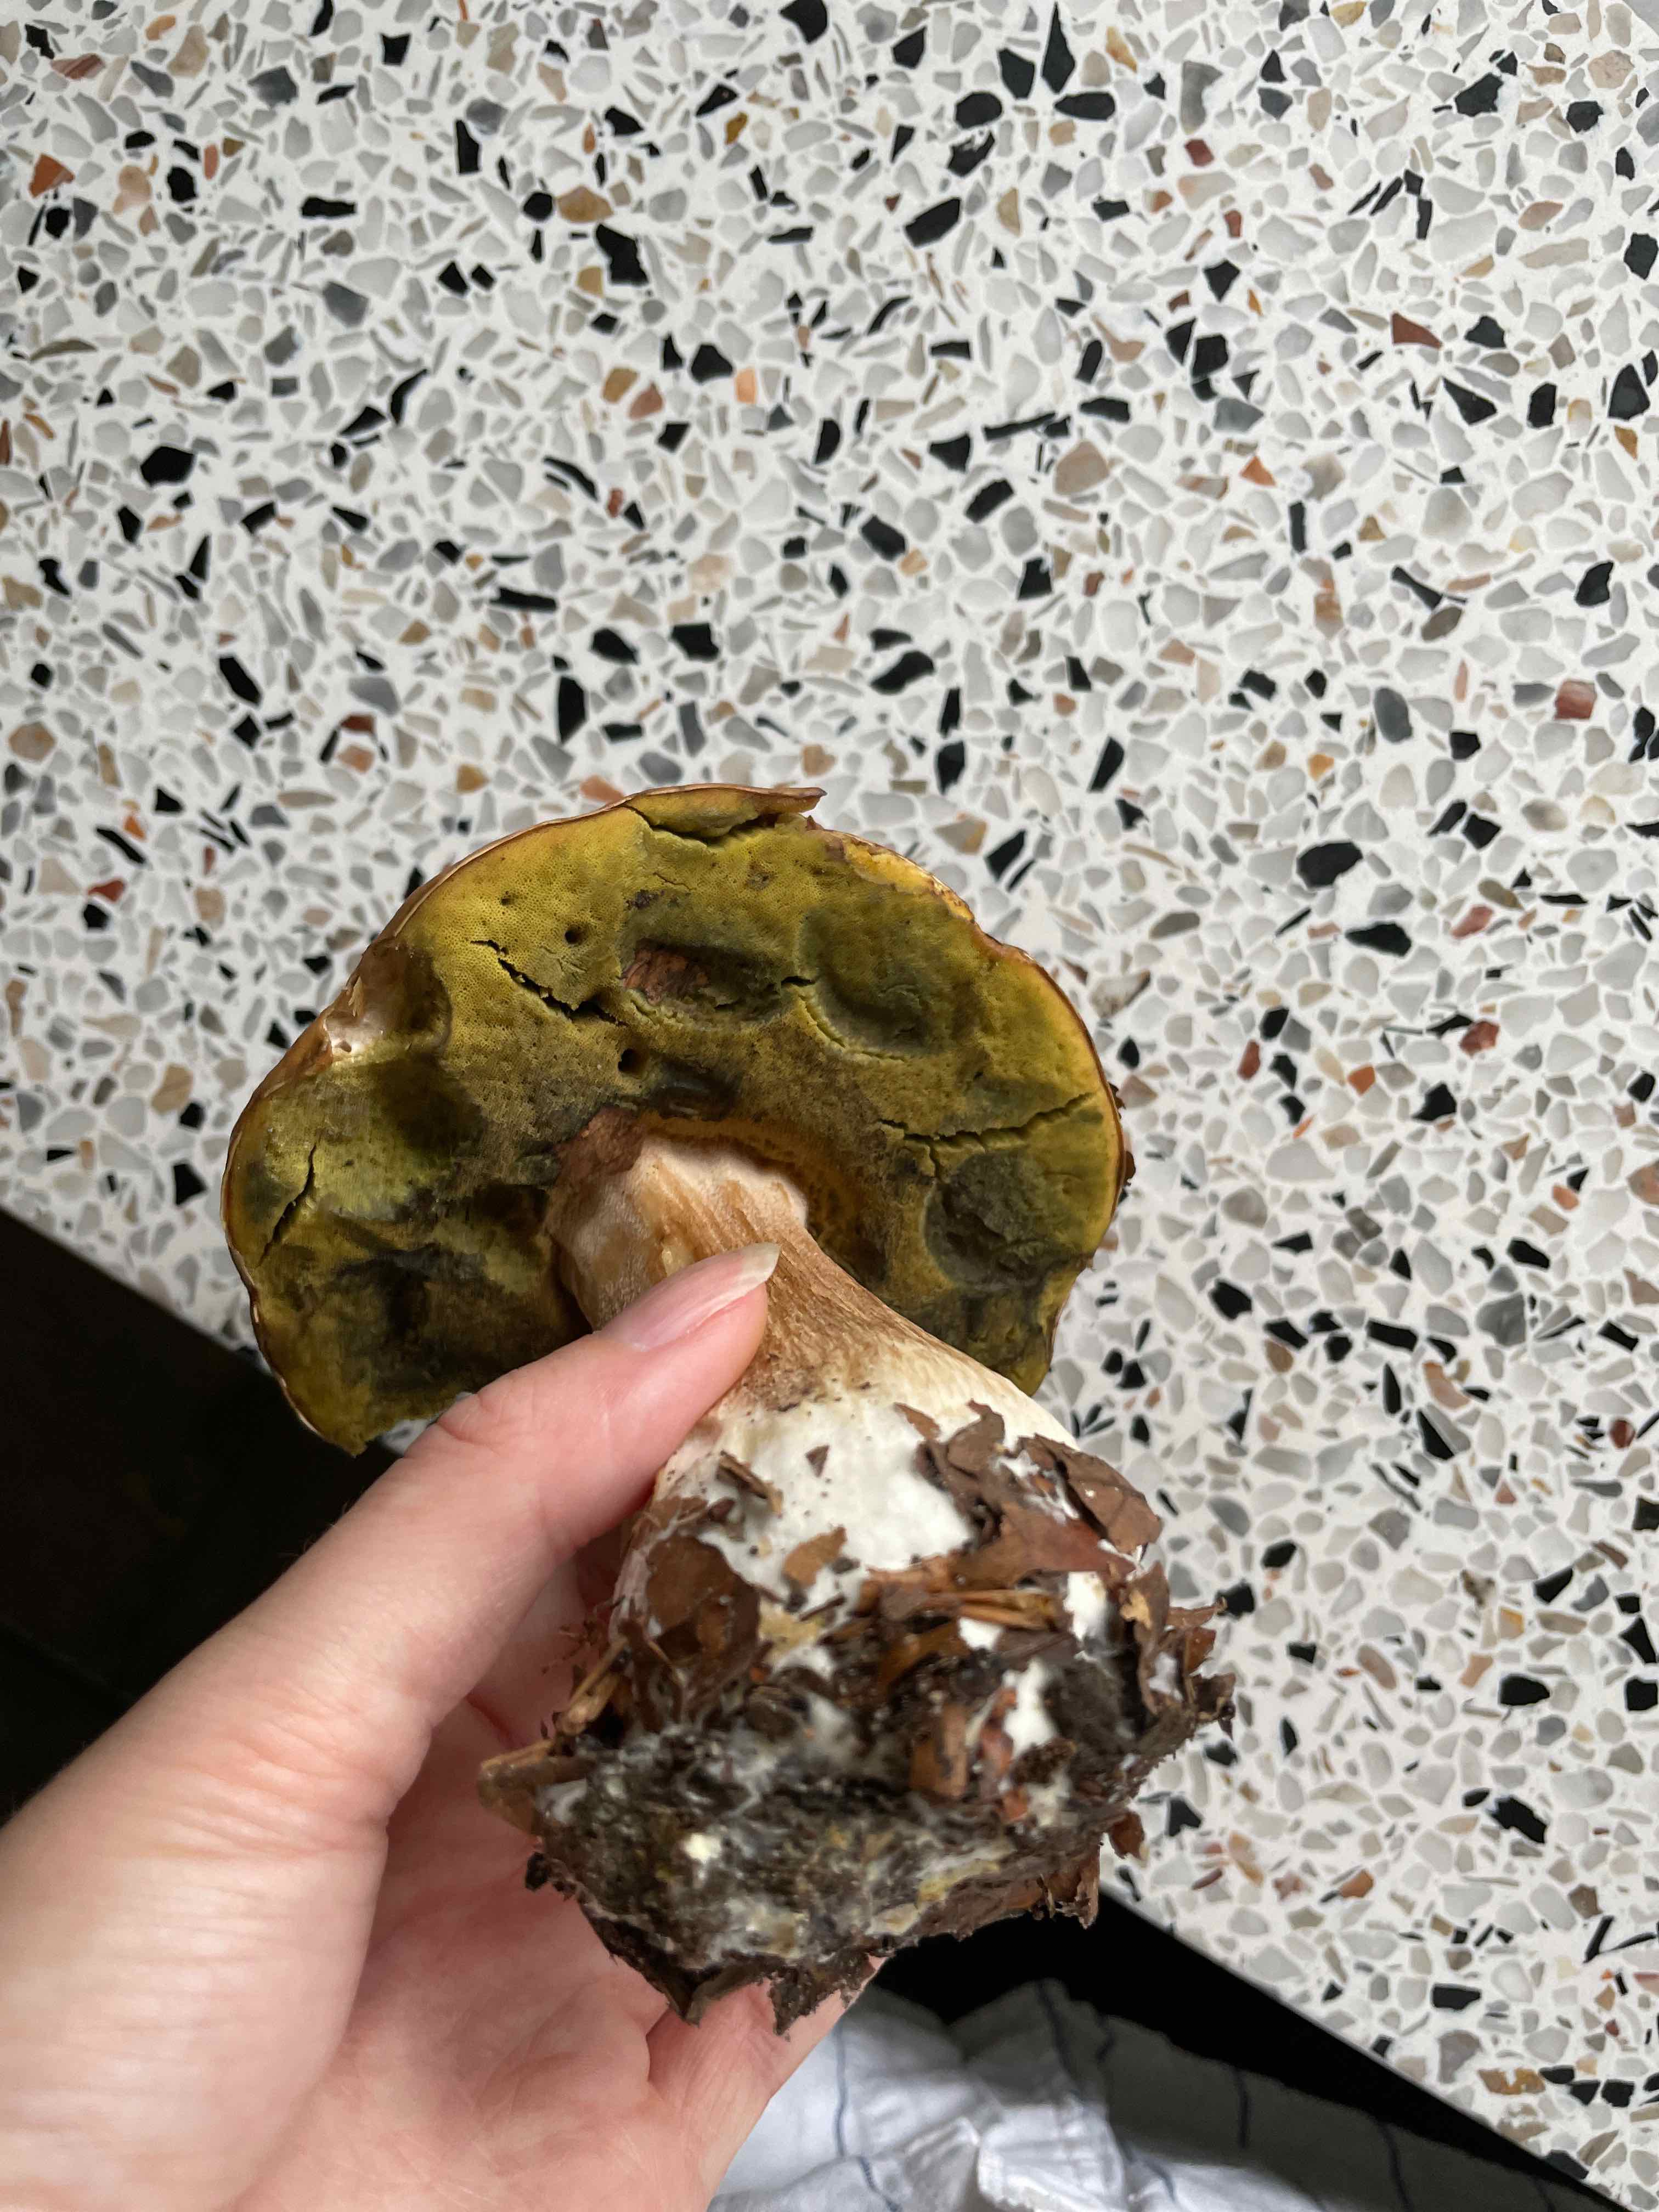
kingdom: Fungi
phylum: Basidiomycota
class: Agaricomycetes
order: Boletales
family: Boletaceae
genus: Boletus
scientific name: Boletus edulis
